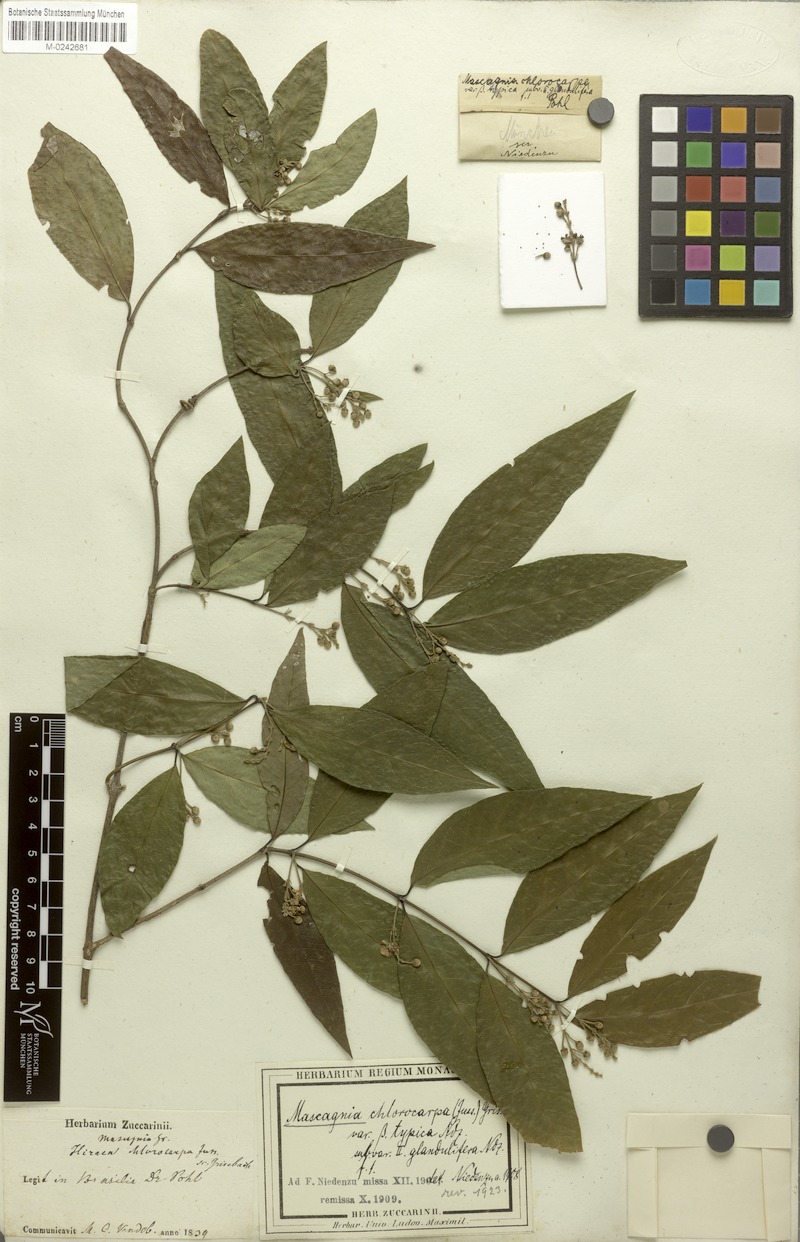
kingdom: Plantae
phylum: Tracheophyta
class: Magnoliopsida
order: Malpighiales
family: Malpighiaceae
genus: Carolus
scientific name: Carolus chlorocarpus
